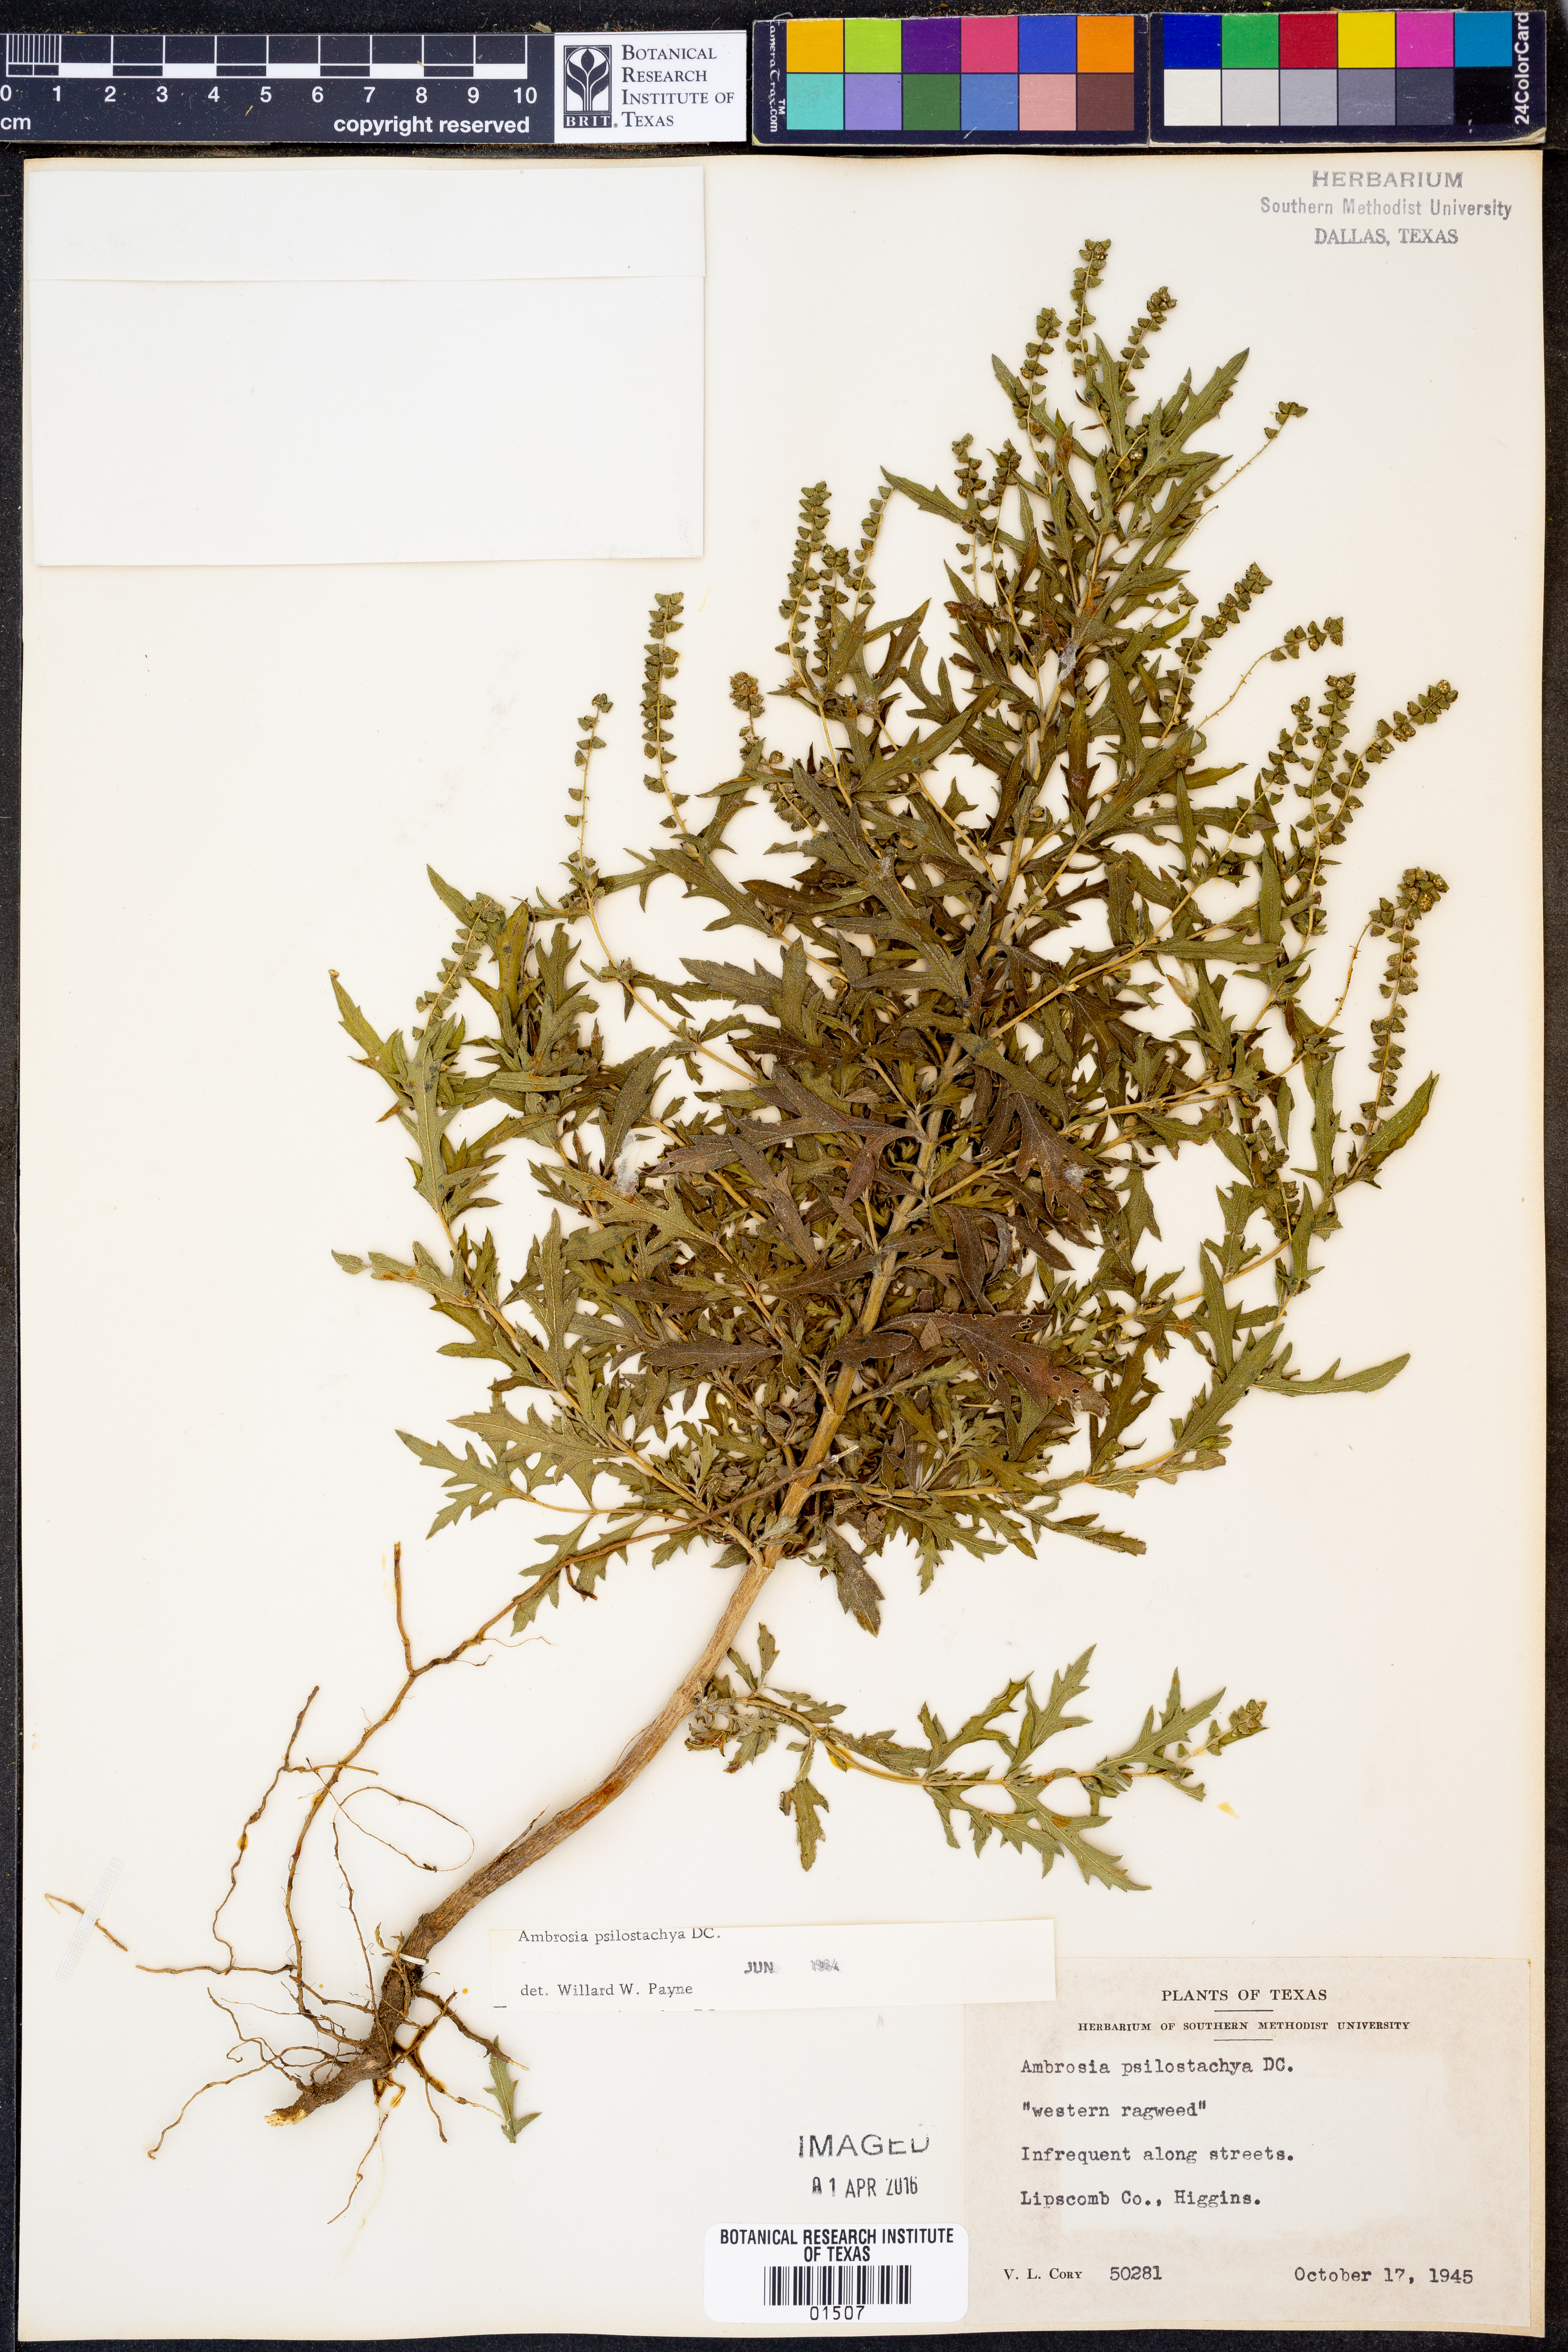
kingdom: Plantae
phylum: Tracheophyta
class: Magnoliopsida
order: Asterales
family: Asteraceae
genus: Ambrosia
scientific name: Ambrosia psilostachya
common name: Perennial ragweed
